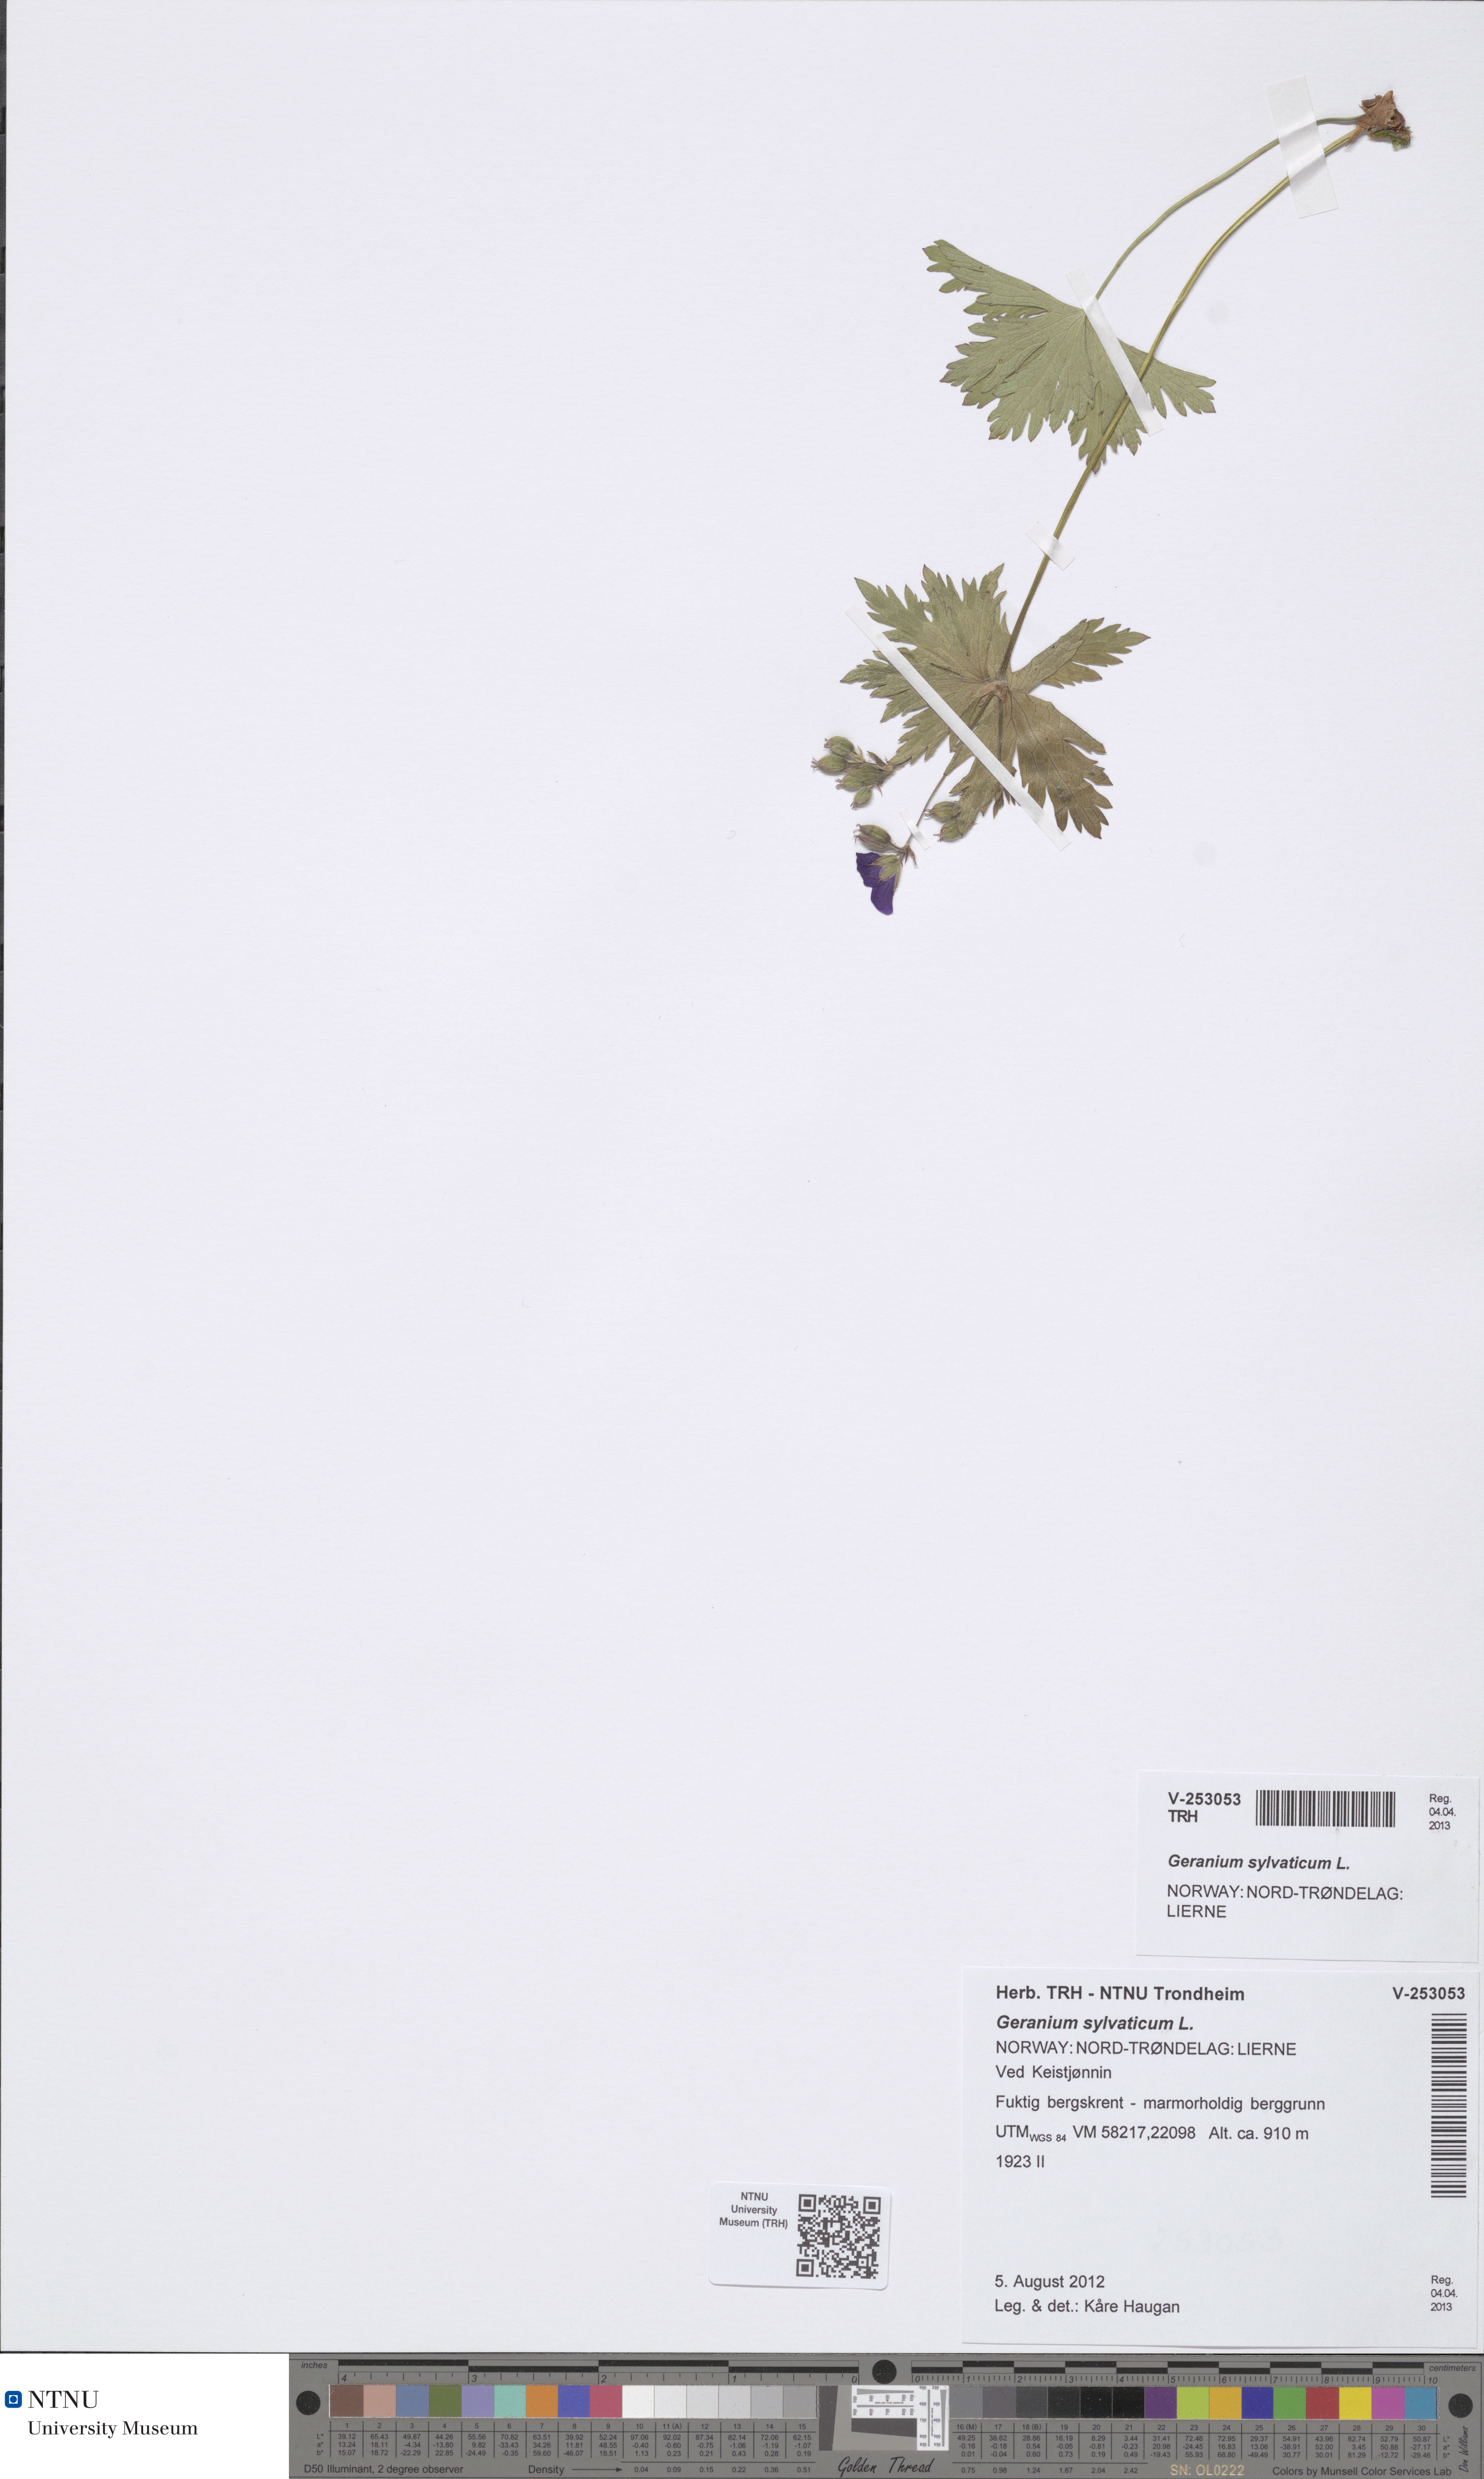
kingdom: Plantae
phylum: Tracheophyta
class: Magnoliopsida
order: Geraniales
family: Geraniaceae
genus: Geranium
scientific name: Geranium sylvaticum
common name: Wood crane's-bill
